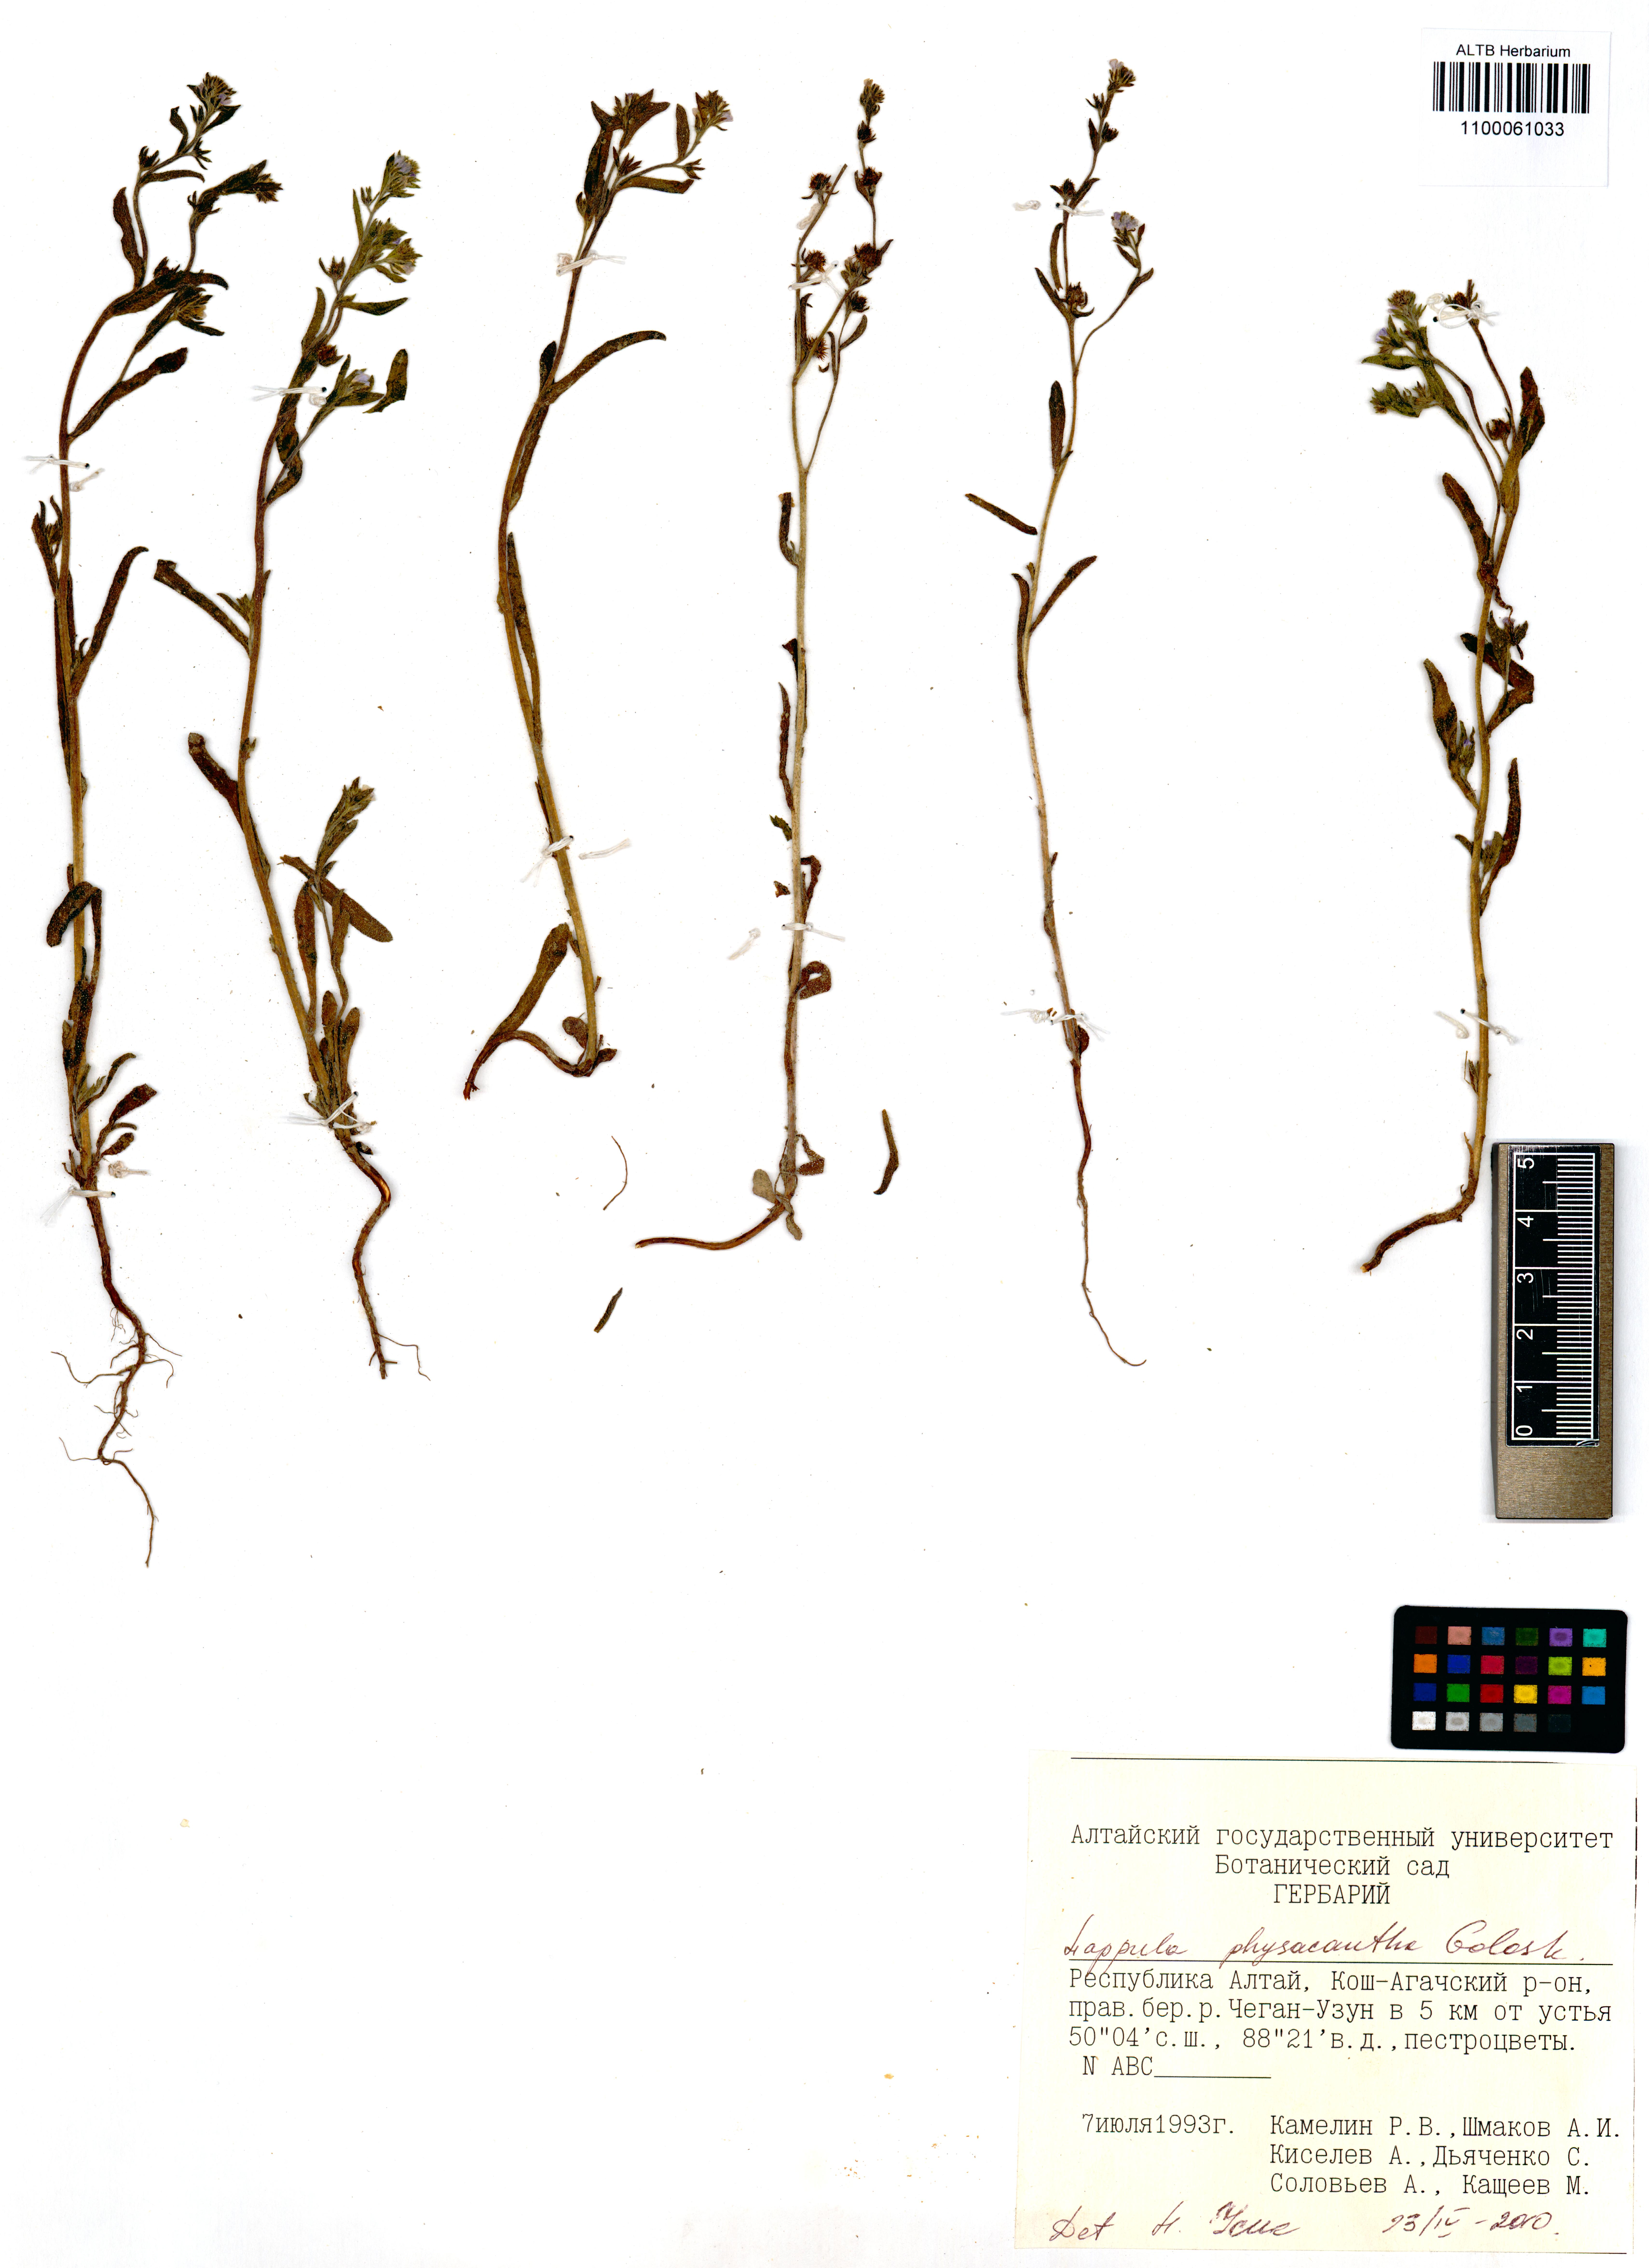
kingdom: Plantae
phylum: Tracheophyta
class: Magnoliopsida
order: Boraginales
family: Boraginaceae
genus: Lappula
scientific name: Lappula physacantha
